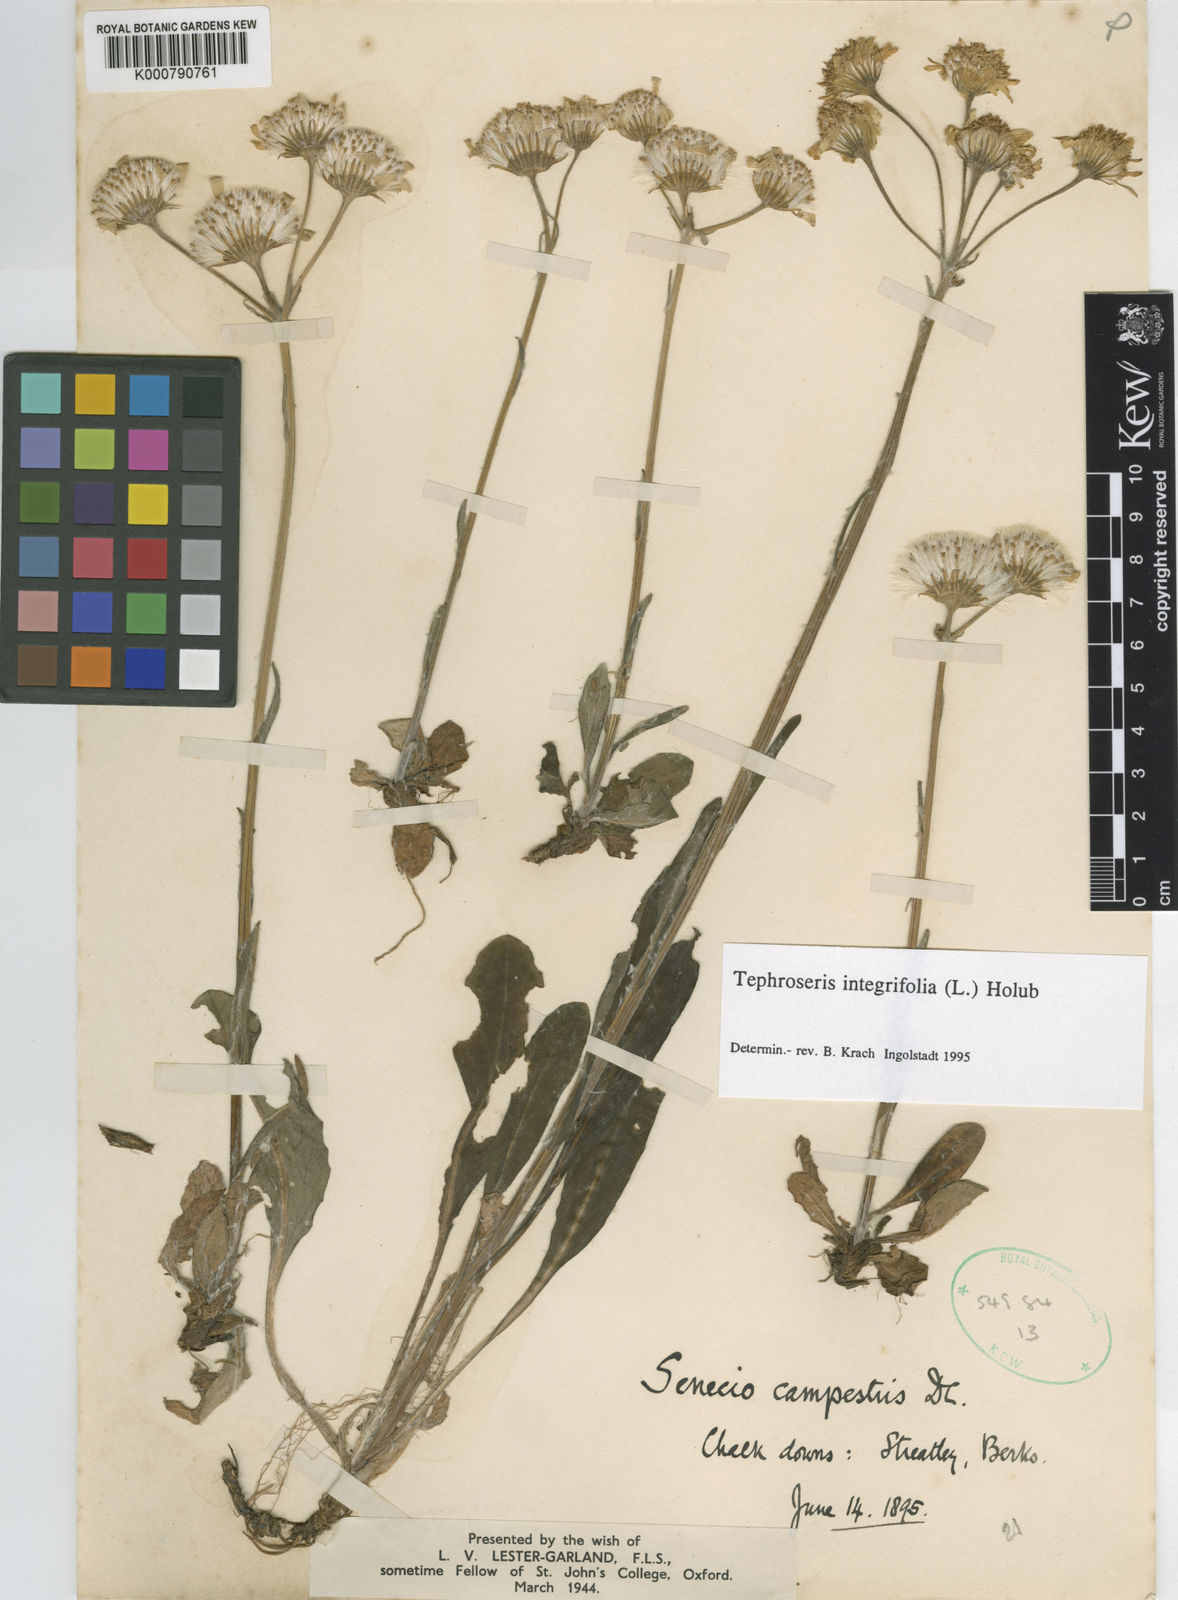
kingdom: Plantae
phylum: Tracheophyta
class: Magnoliopsida
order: Asterales
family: Asteraceae
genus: Tephroseris
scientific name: Tephroseris integrifolia
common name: Field fleawort
